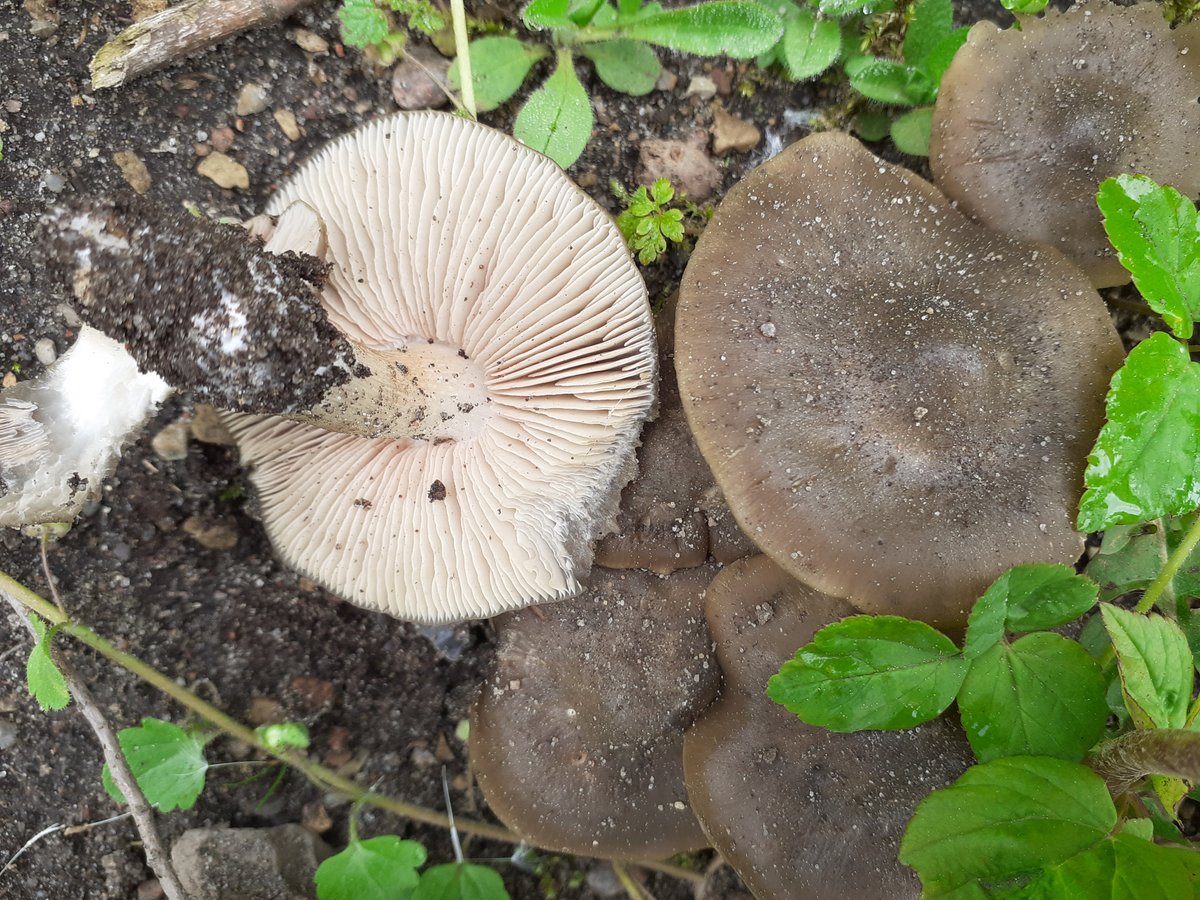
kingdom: Fungi
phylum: Basidiomycota
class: Agaricomycetes
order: Agaricales
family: Entolomataceae
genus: Entoloma
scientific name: Entoloma
